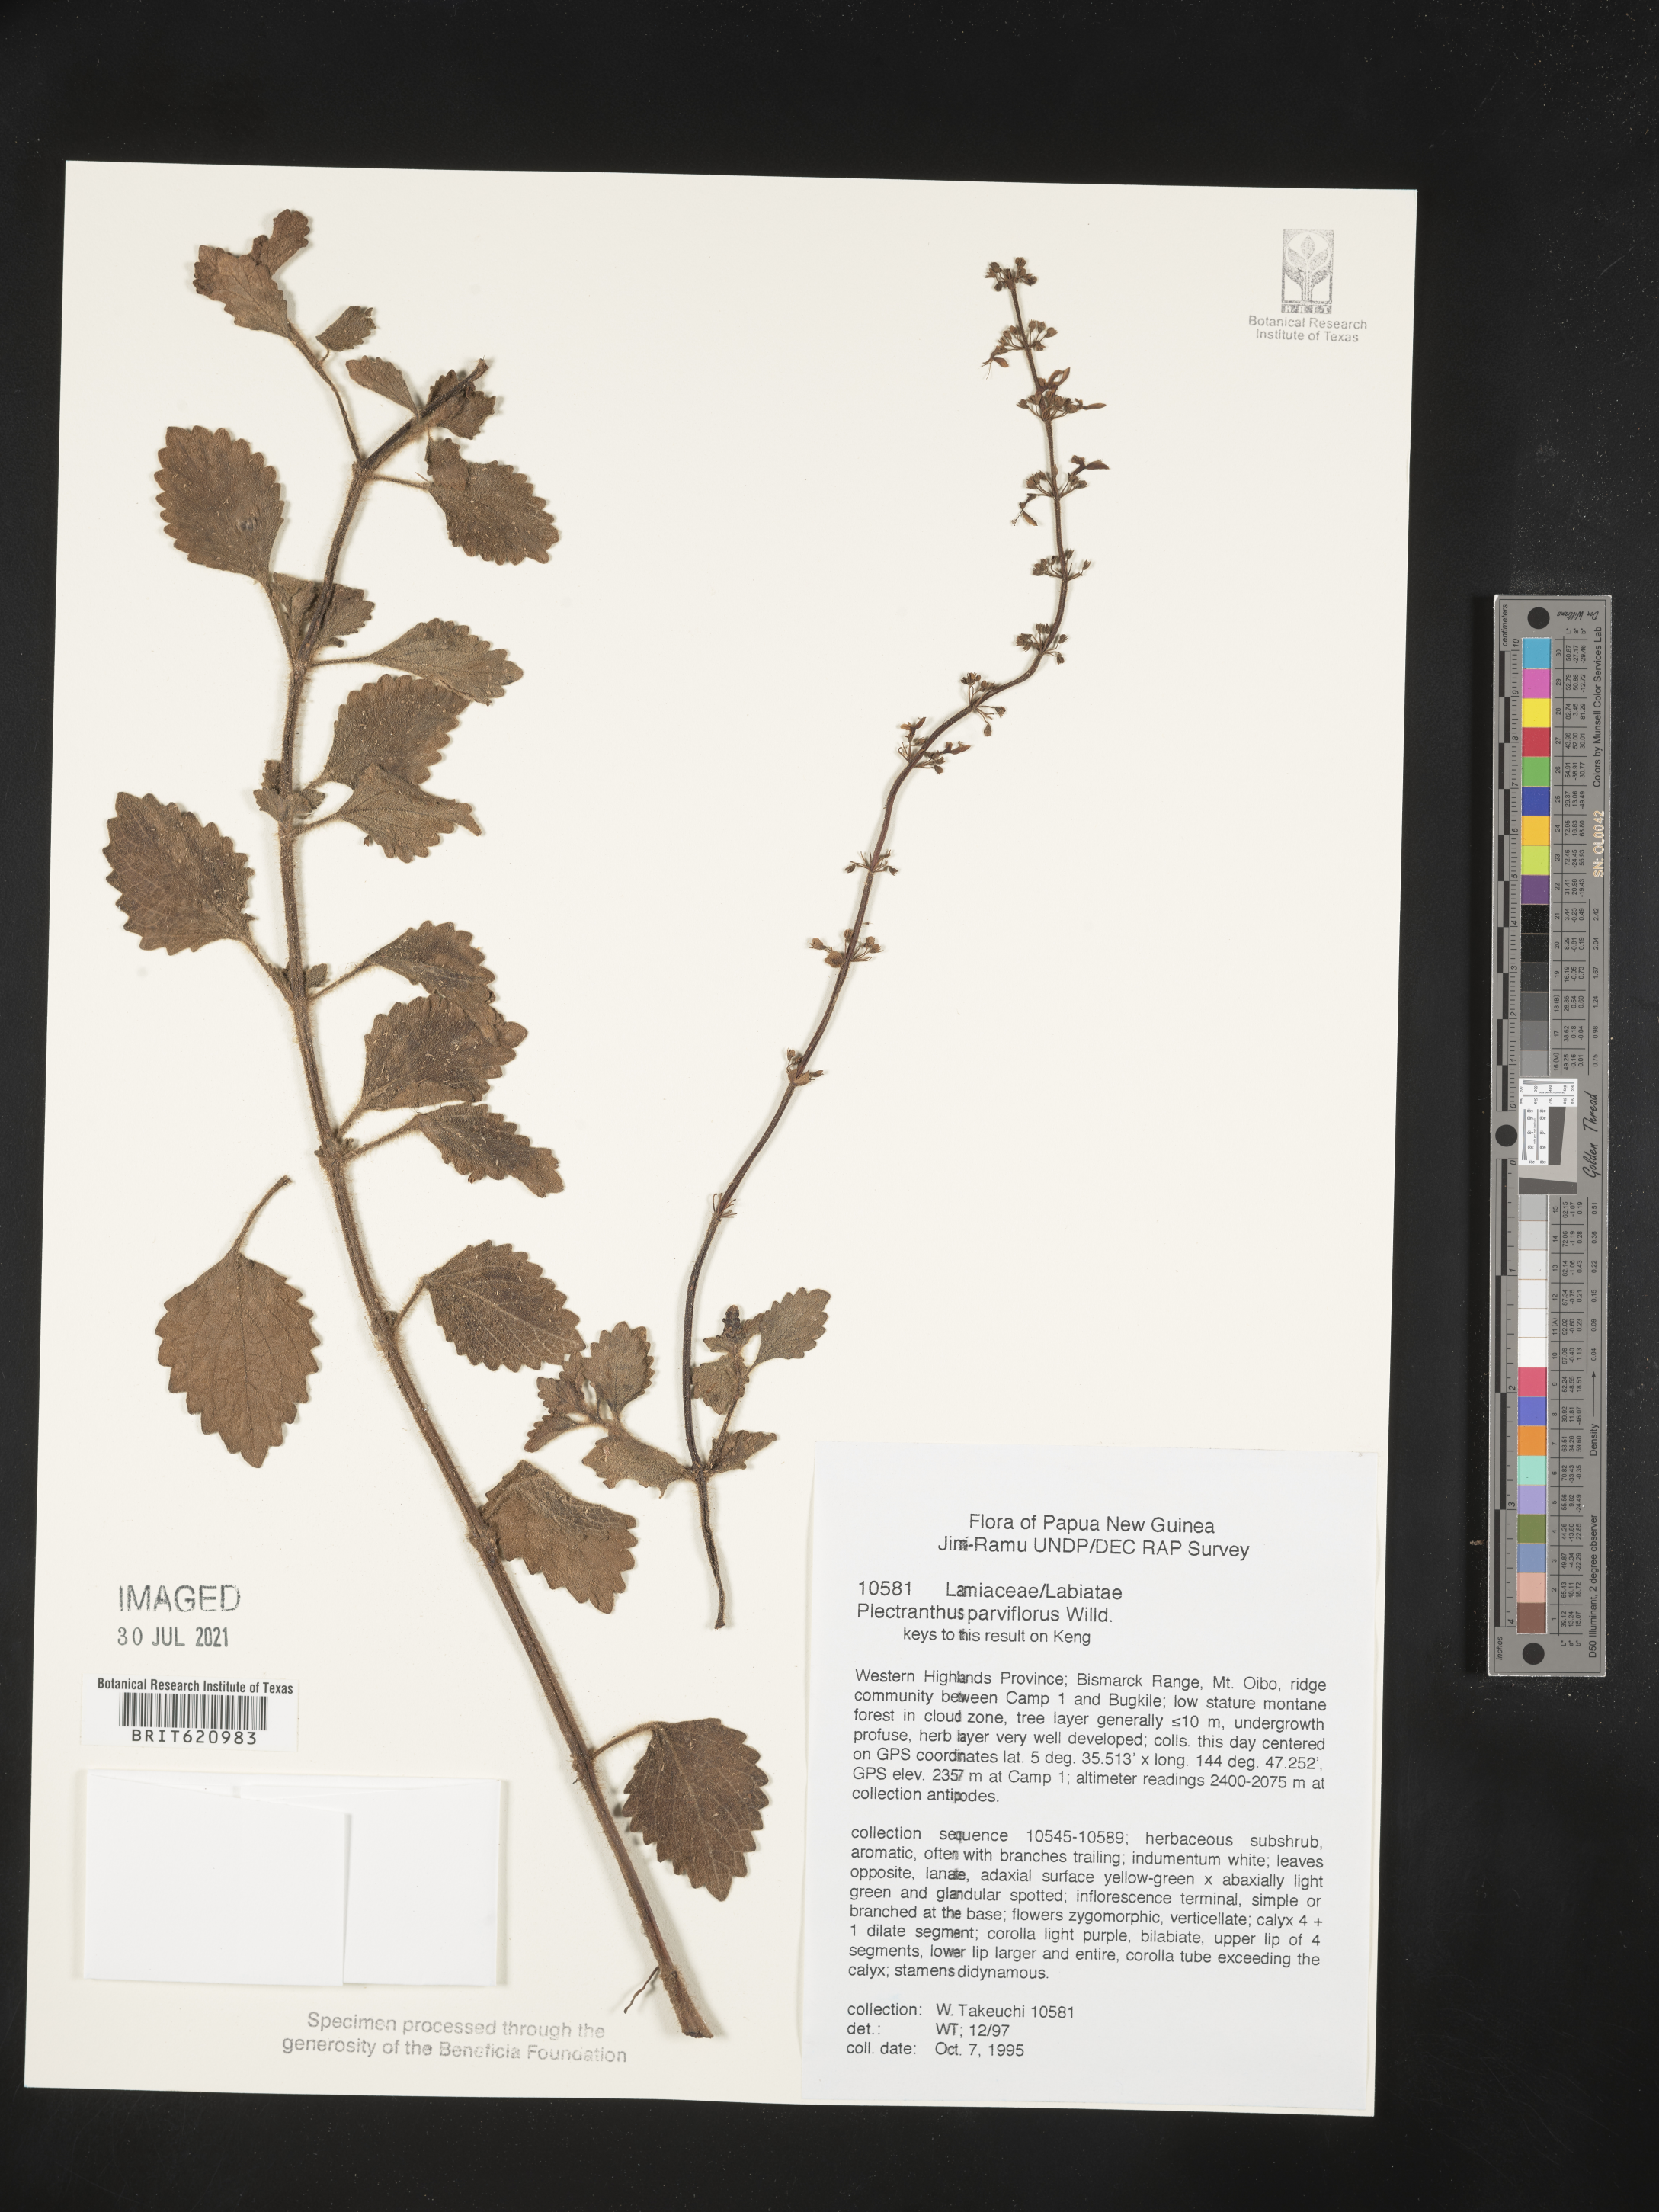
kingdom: Plantae
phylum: Tracheophyta
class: Magnoliopsida
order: Lamiales
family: Lamiaceae
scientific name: Lamiaceae
